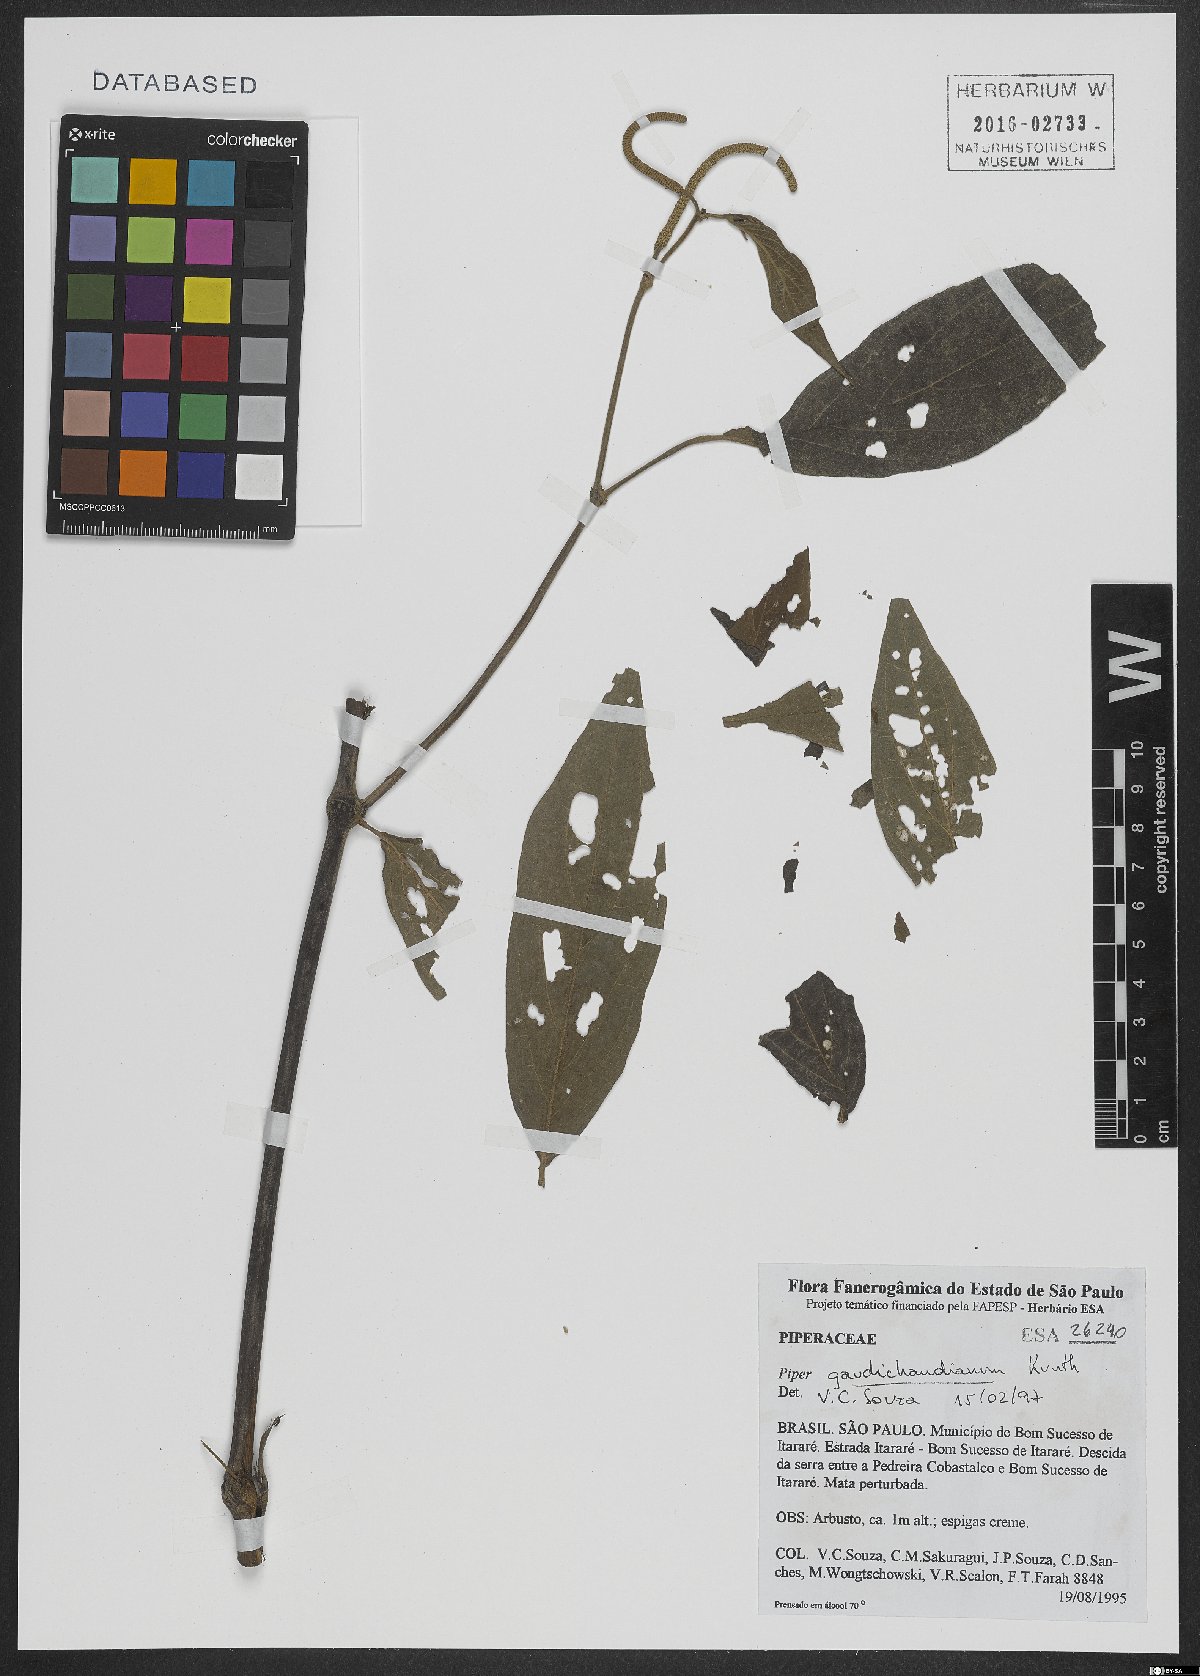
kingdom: Plantae
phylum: Tracheophyta
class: Magnoliopsida
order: Piperales
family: Piperaceae
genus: Piper
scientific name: Piper gaudichaudianum
